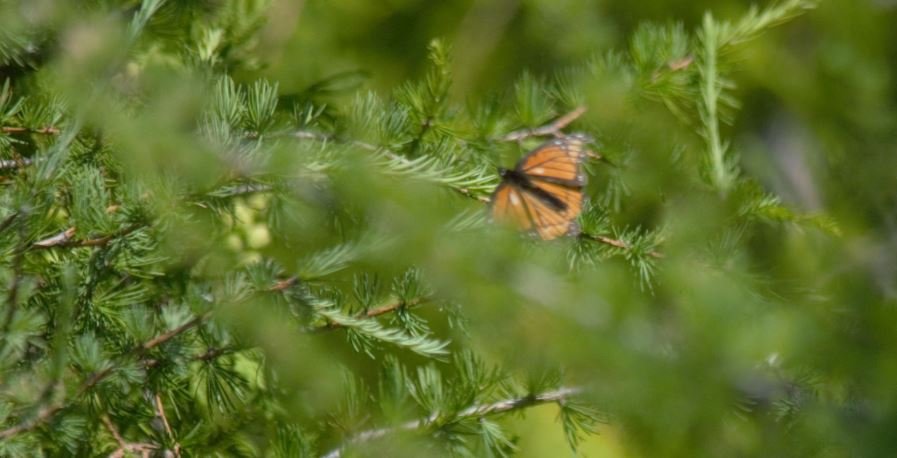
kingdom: Animalia
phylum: Arthropoda
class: Insecta
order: Lepidoptera
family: Nymphalidae
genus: Limenitis
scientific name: Limenitis archippus
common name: Viceroy
